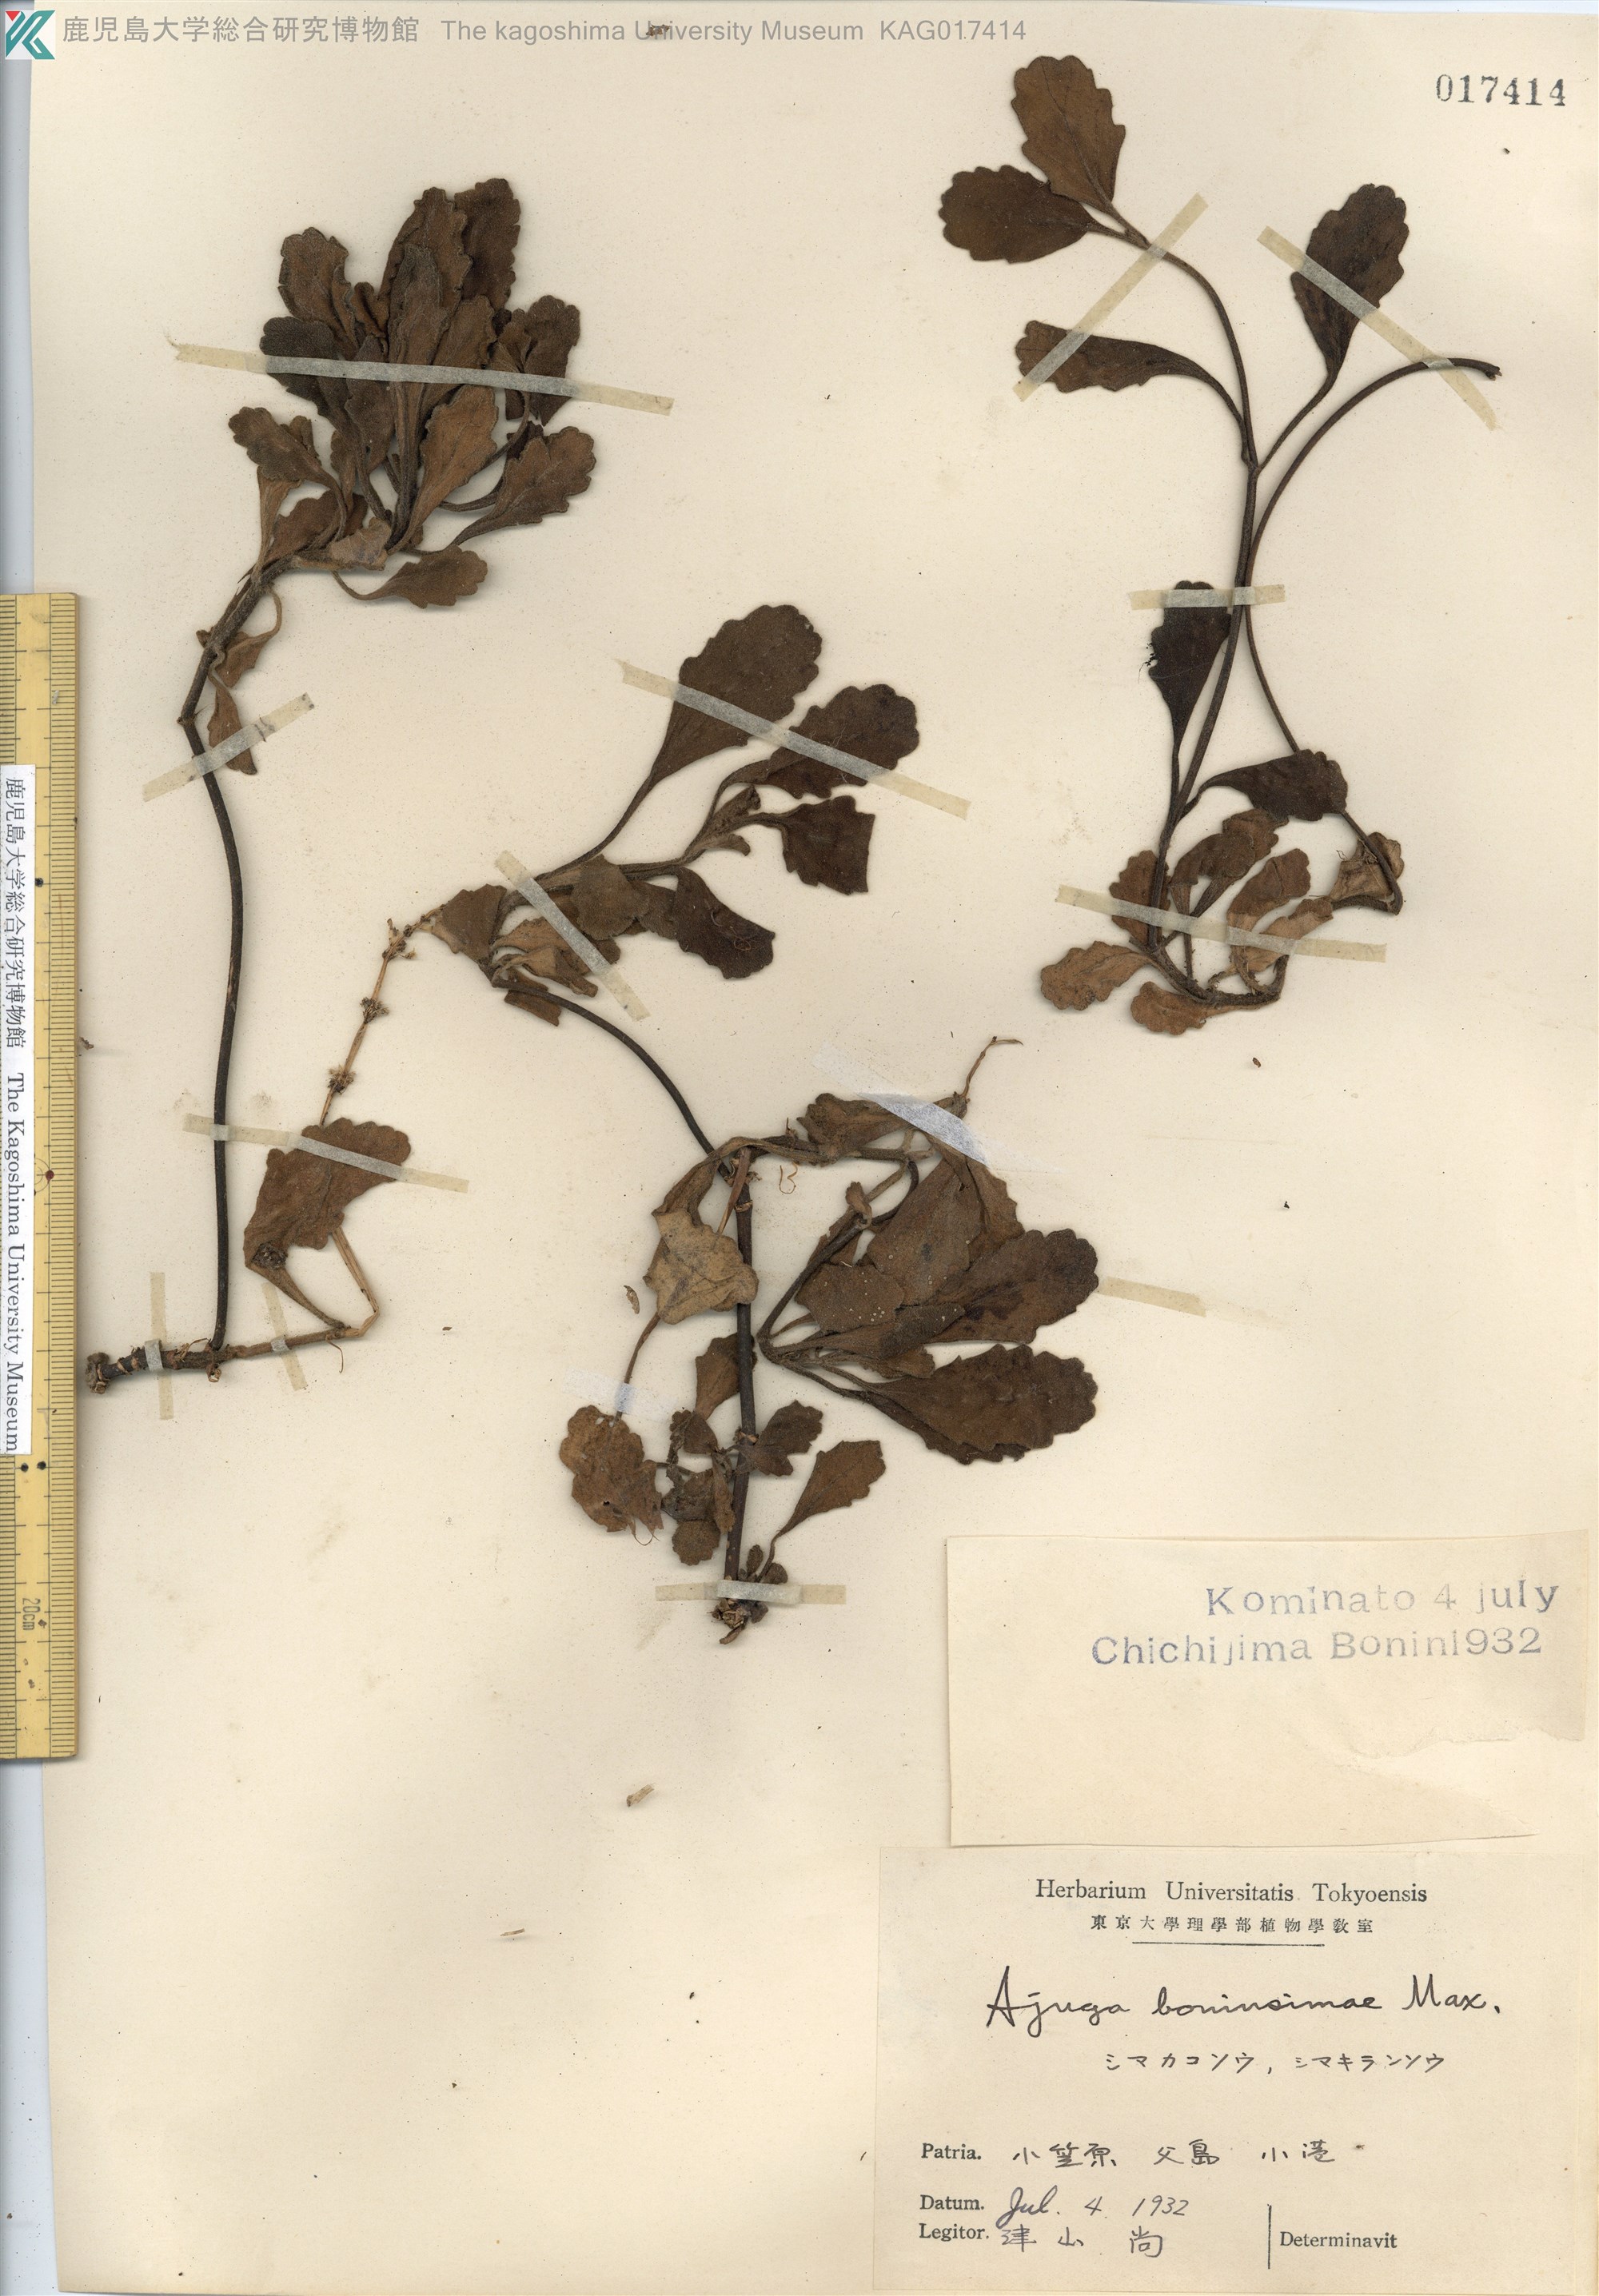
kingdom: Plantae
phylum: Tracheophyta
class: Magnoliopsida
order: Lamiales
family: Lamiaceae
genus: Ajuga
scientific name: Ajuga boninsimae
